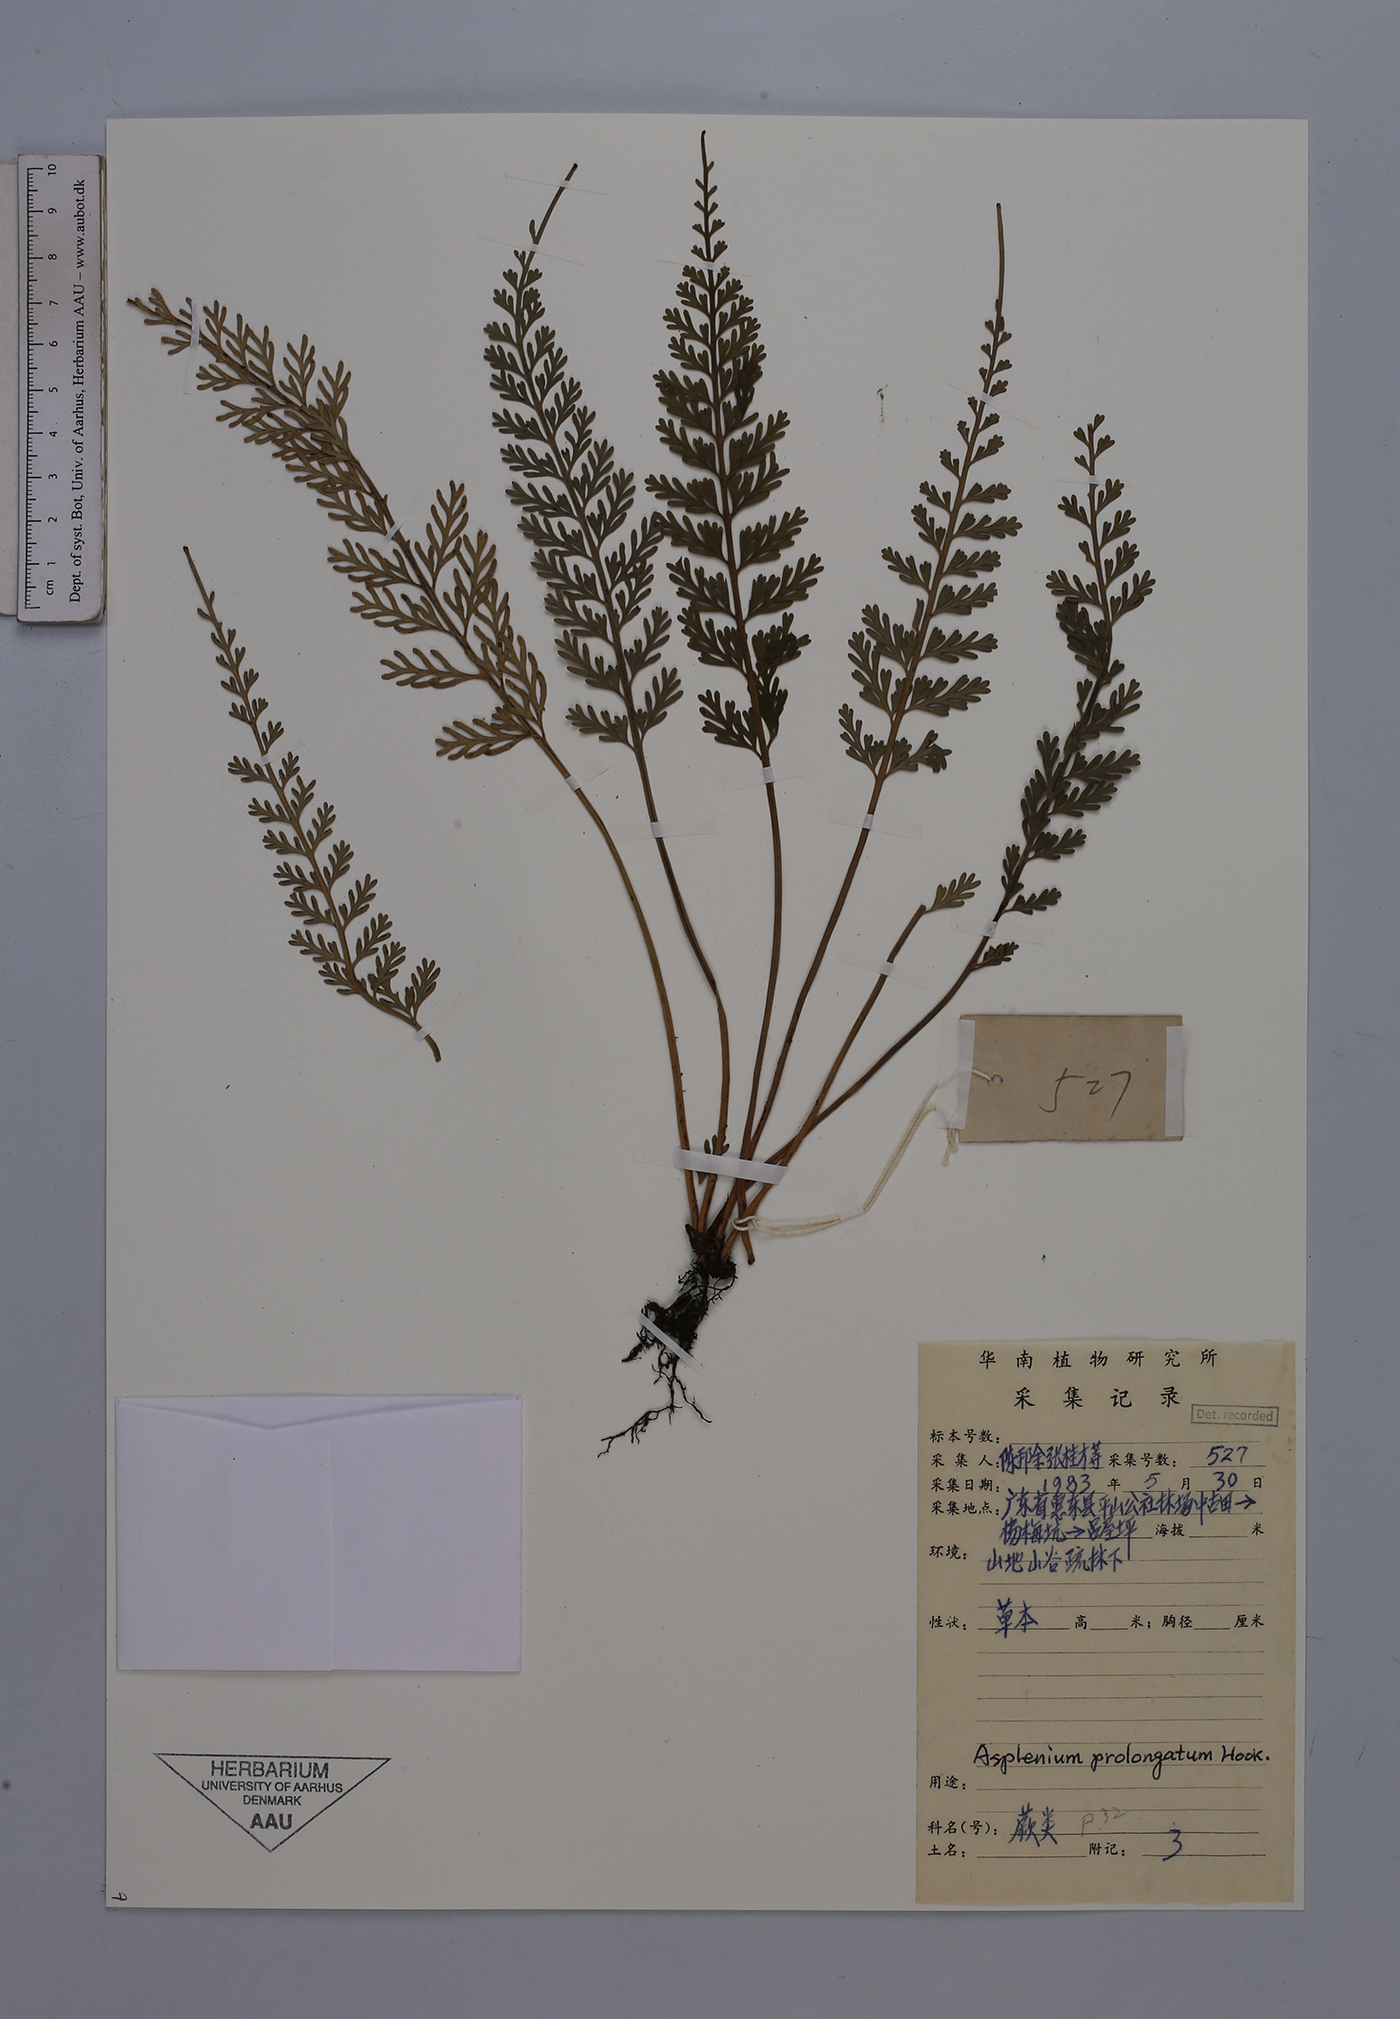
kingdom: Plantae
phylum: Tracheophyta
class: Polypodiopsida
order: Polypodiales
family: Aspleniaceae
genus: Asplenium
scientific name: Asplenium prolongatum
